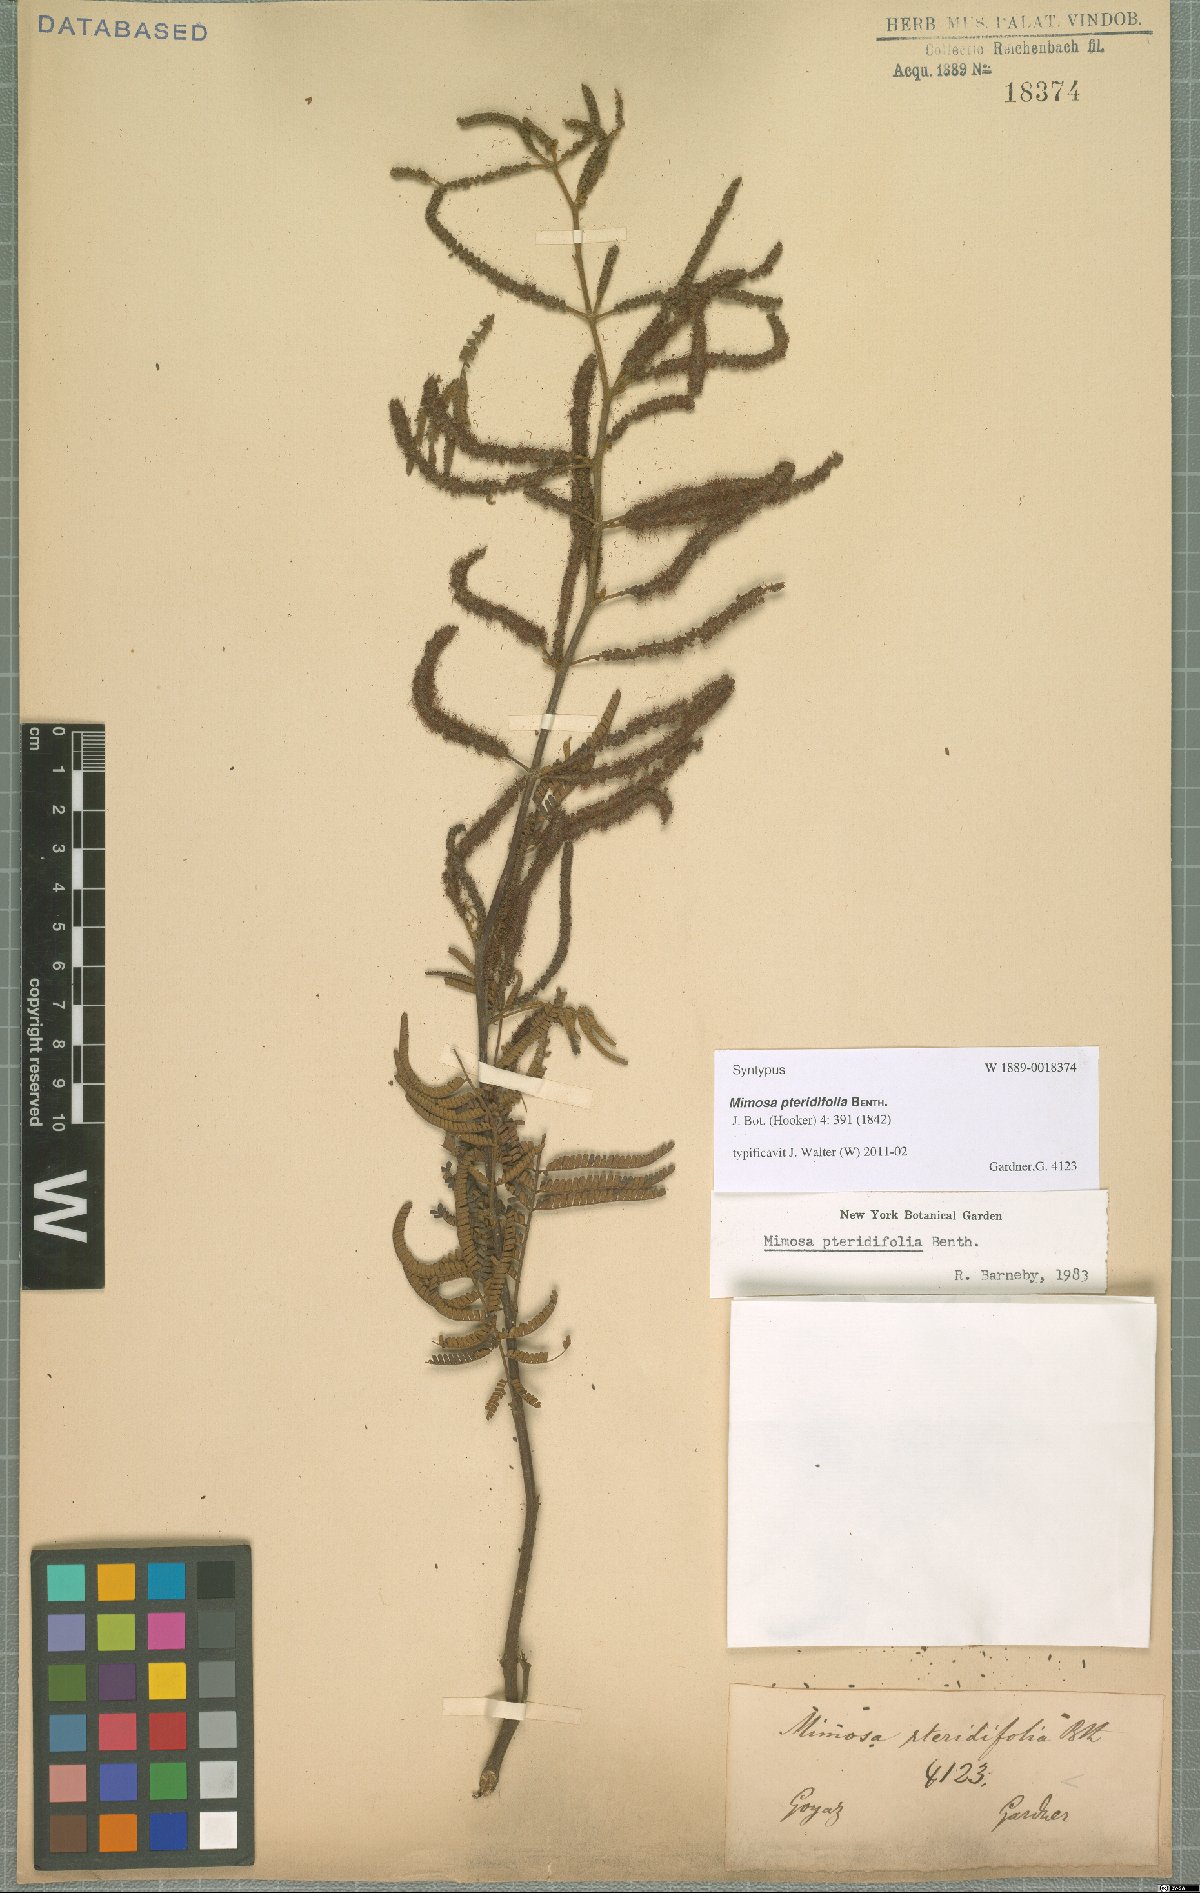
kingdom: Plantae
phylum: Tracheophyta
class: Magnoliopsida
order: Fabales
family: Fabaceae
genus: Mimosa
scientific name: Mimosa pteridifolia
